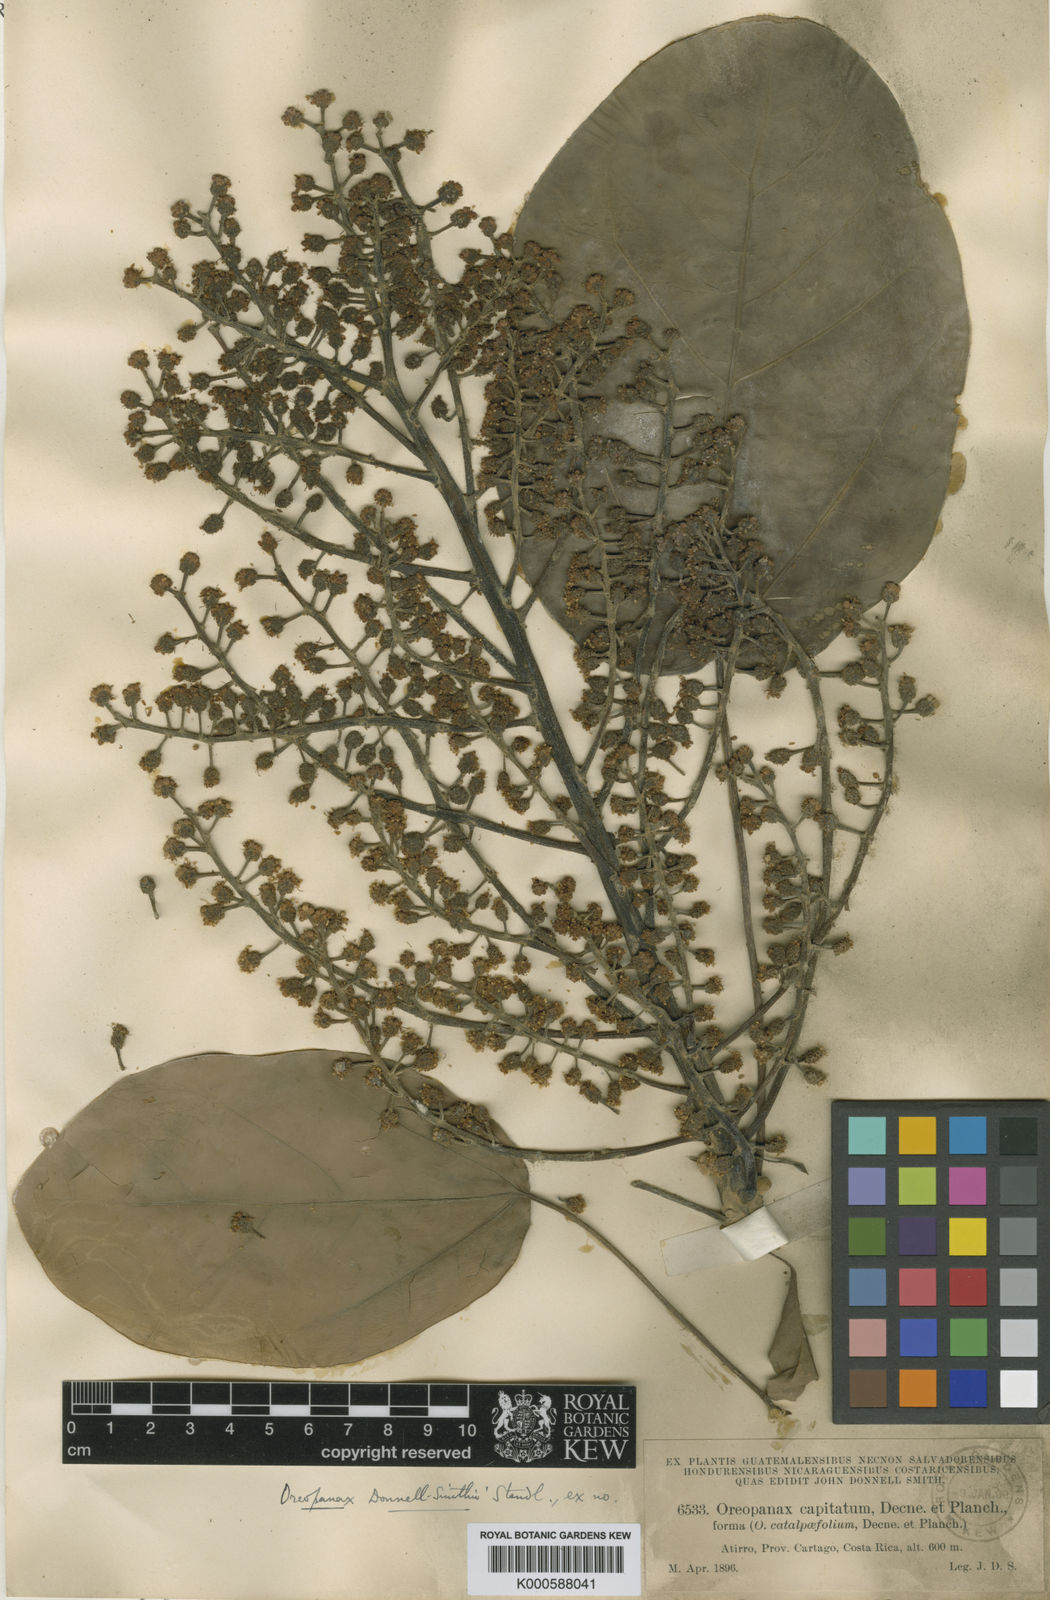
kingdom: Plantae
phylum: Tracheophyta
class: Magnoliopsida
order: Apiales
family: Araliaceae
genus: Oreopanax
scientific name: Oreopanax donnell-smithii
